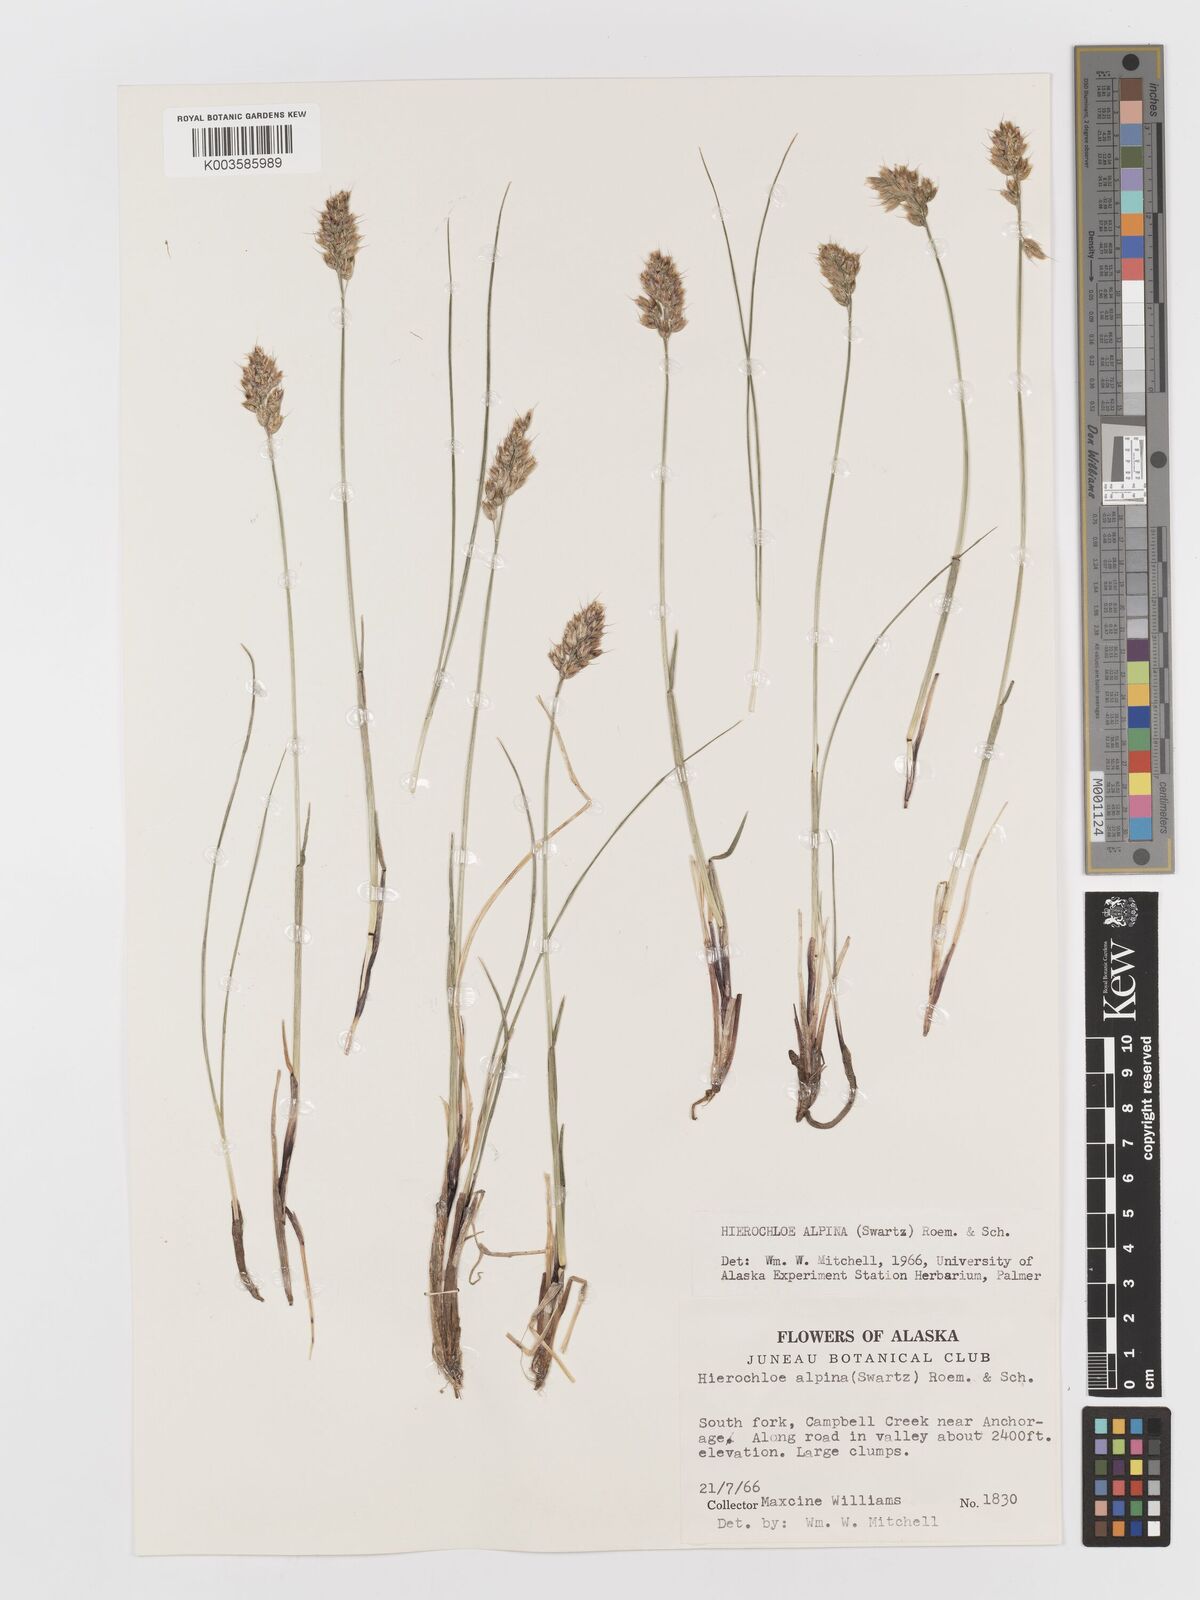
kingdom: Plantae
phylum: Tracheophyta
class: Liliopsida
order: Poales
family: Poaceae
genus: Anthoxanthum
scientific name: Anthoxanthum monticola
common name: Alpine sweetgrass
